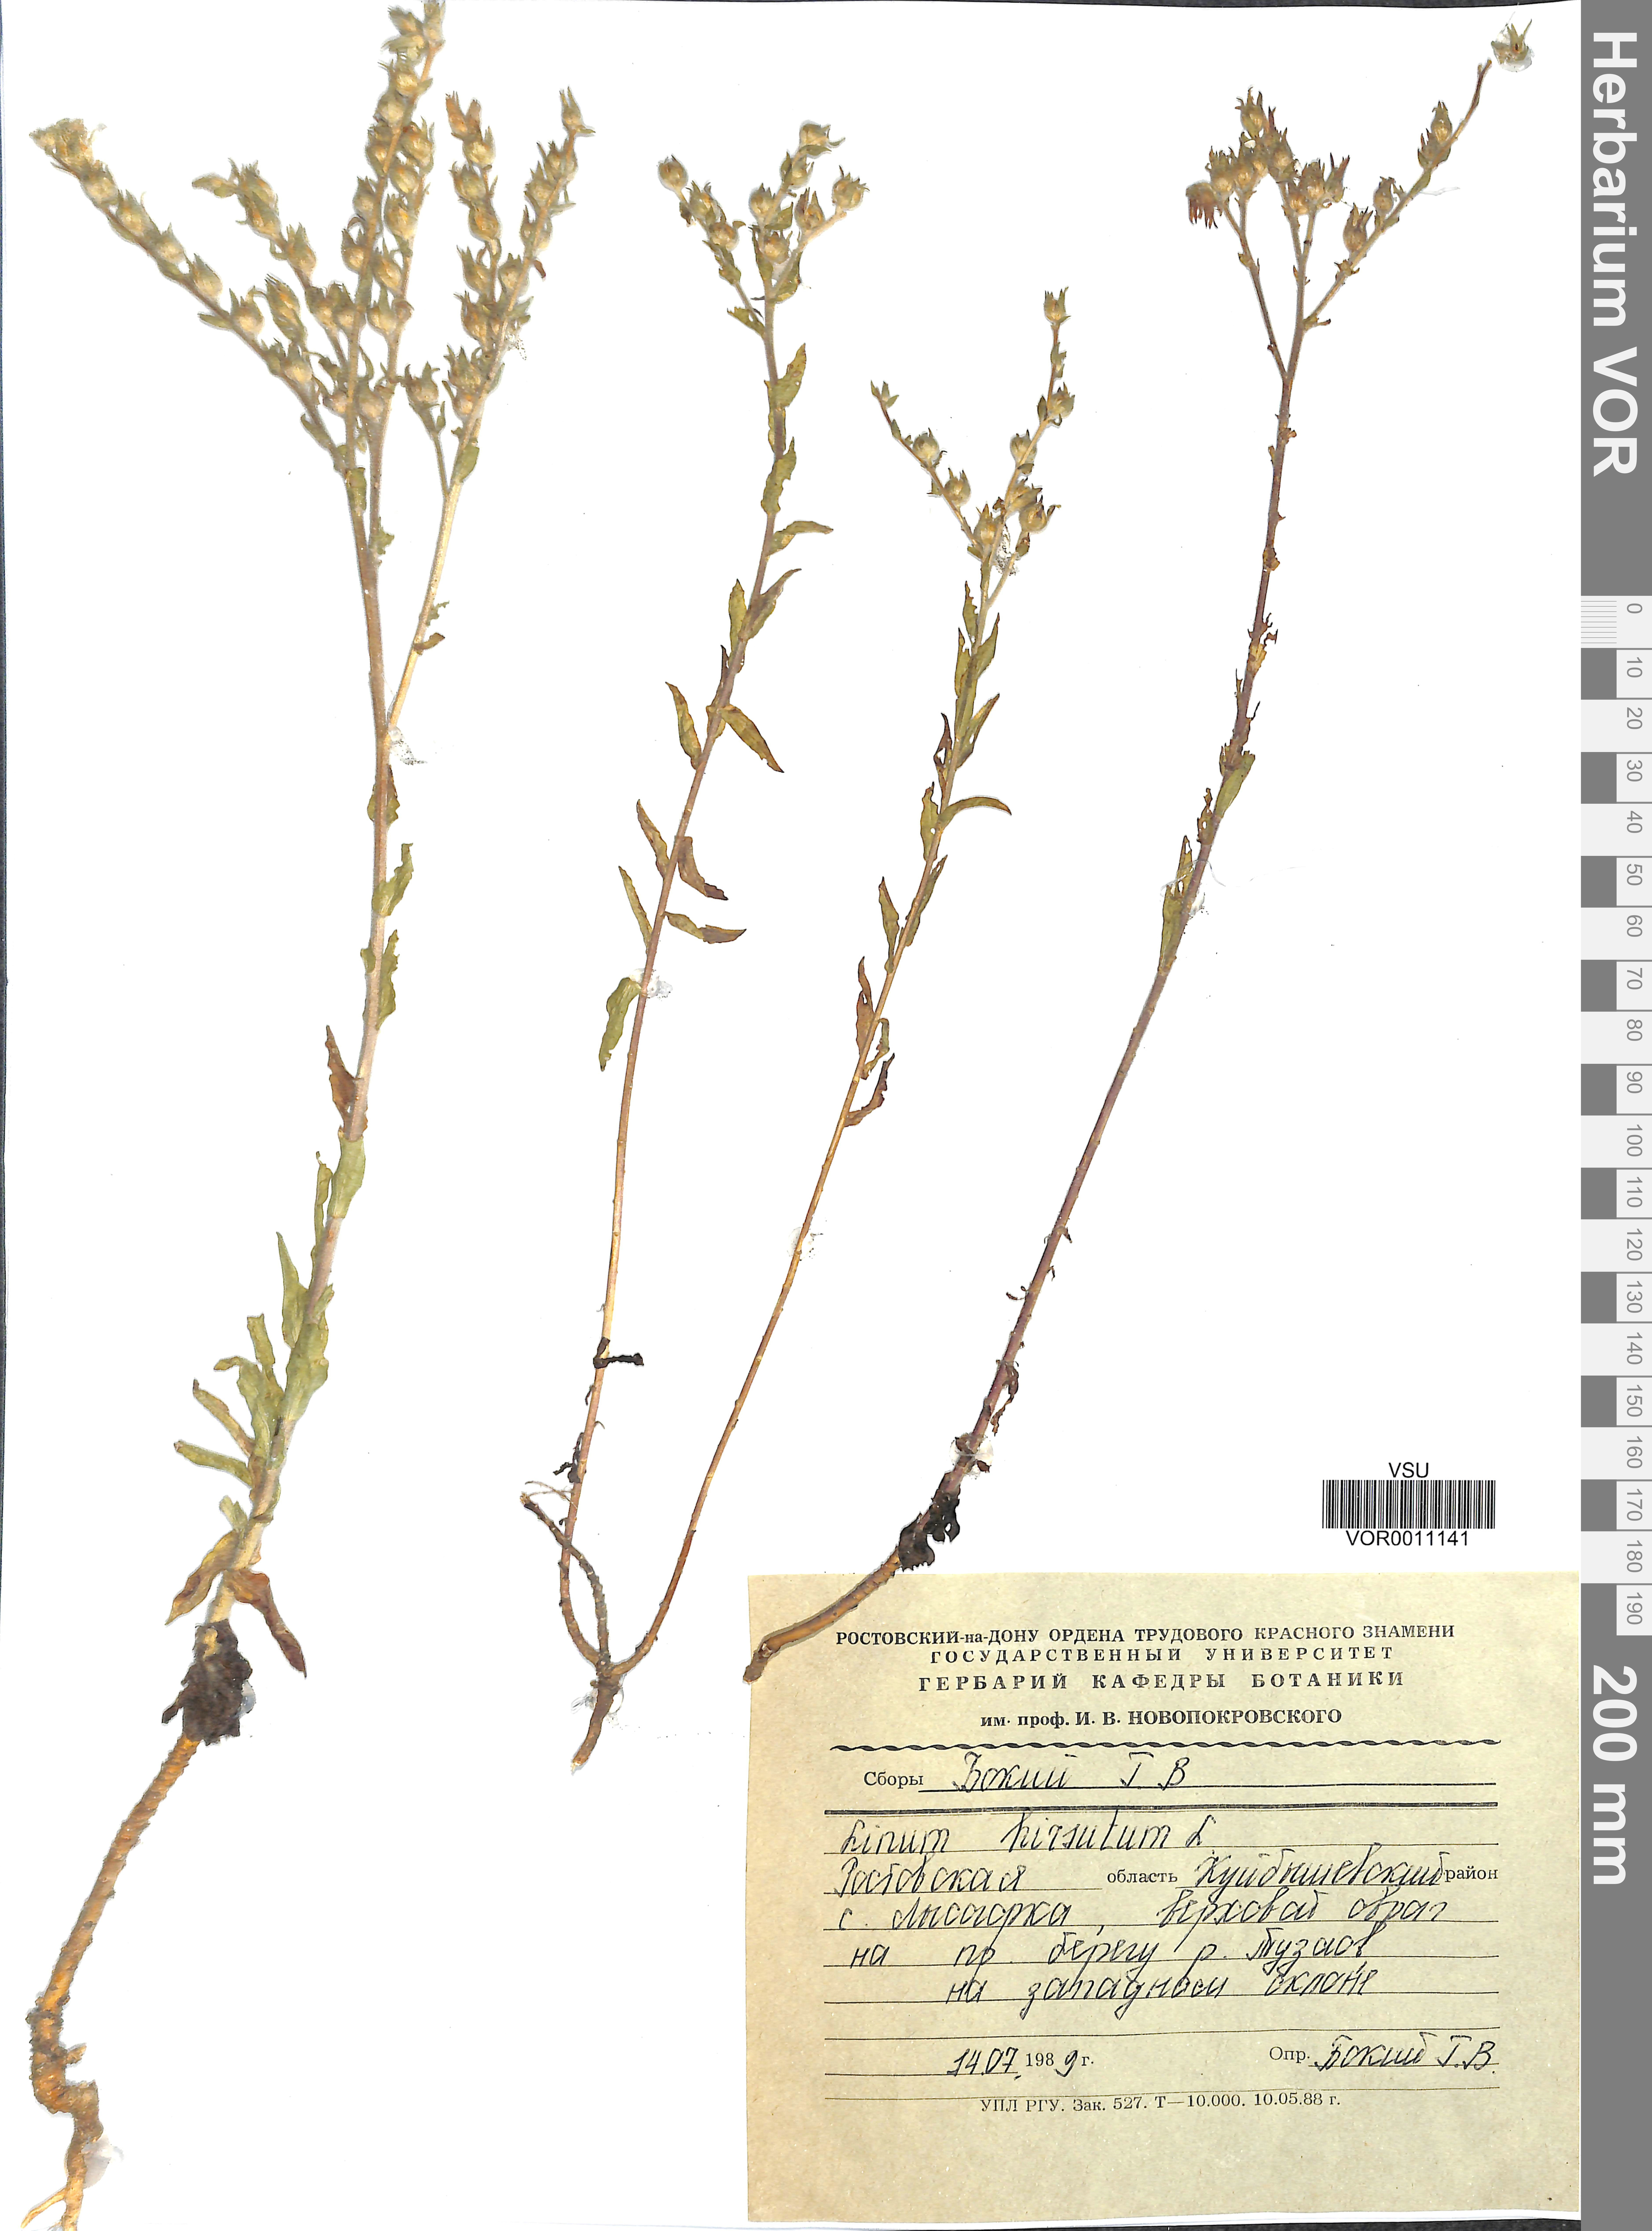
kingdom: Plantae
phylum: Tracheophyta
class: Magnoliopsida
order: Malpighiales
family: Linaceae
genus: Linum
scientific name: Linum hirsutum
